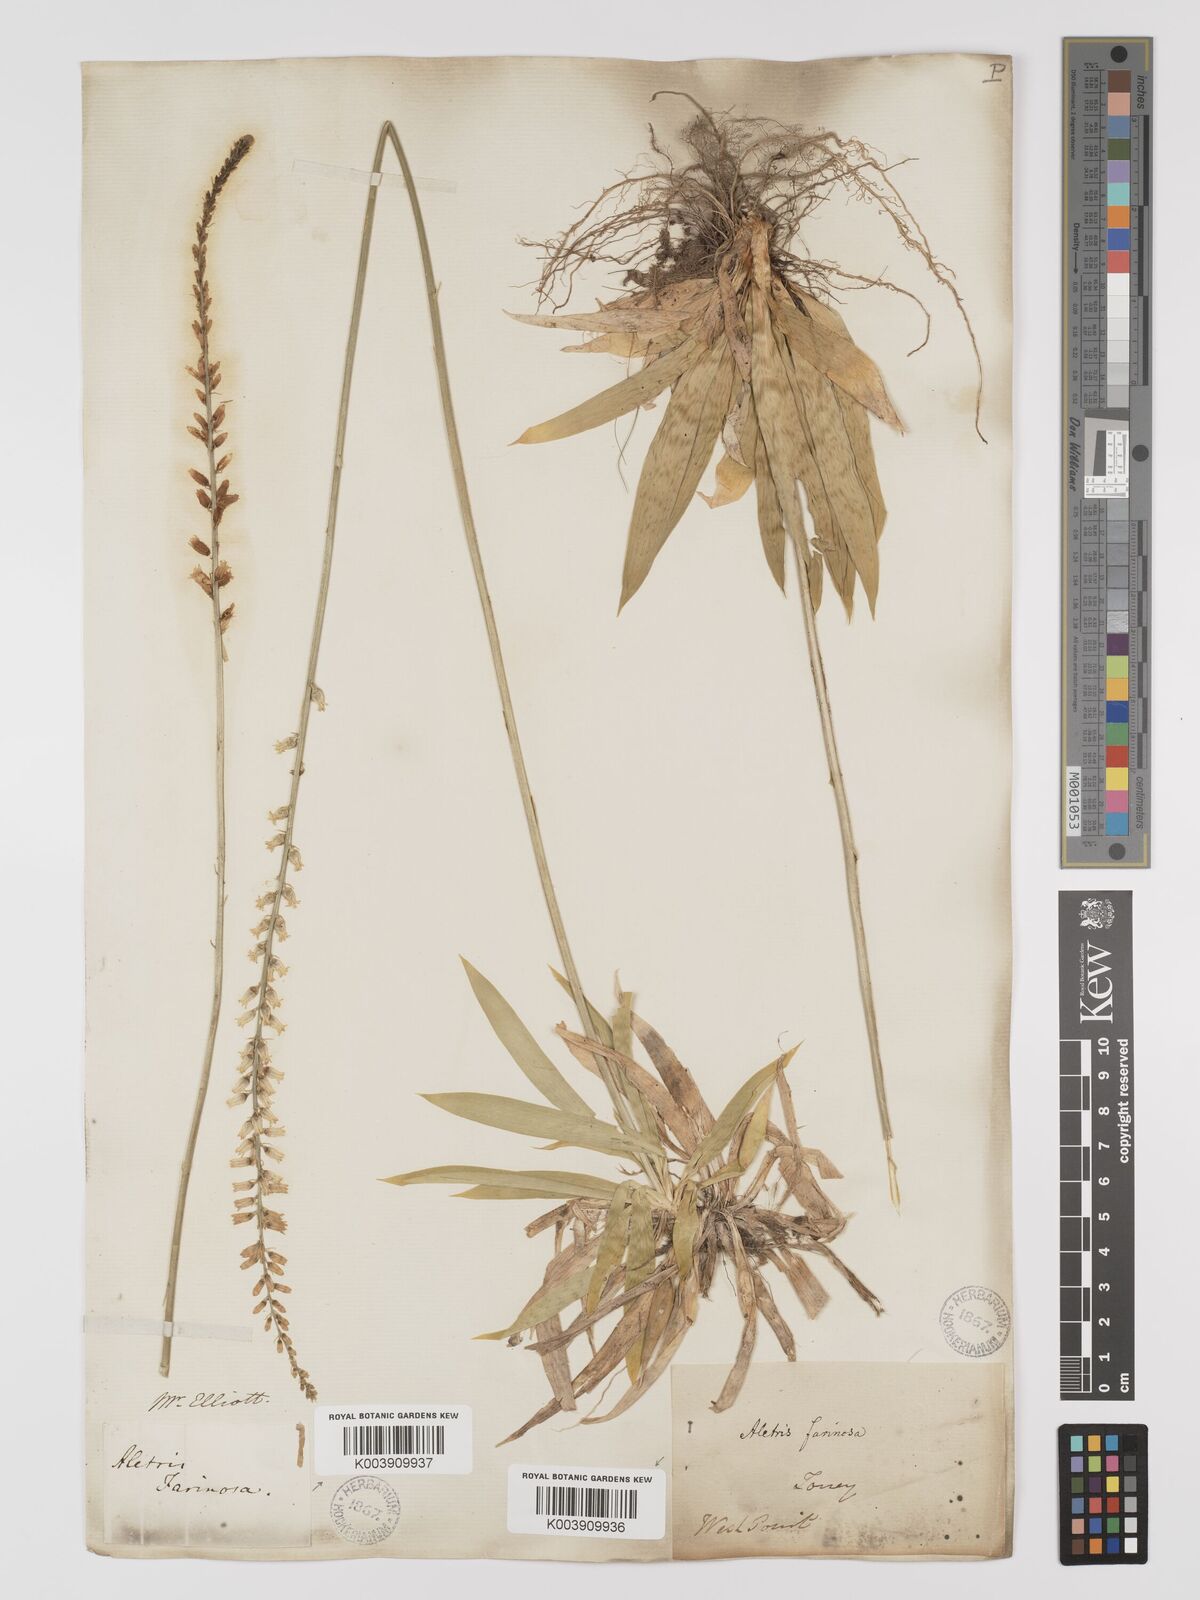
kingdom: Plantae
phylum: Tracheophyta
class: Liliopsida
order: Dioscoreales
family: Nartheciaceae
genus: Aletris
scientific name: Aletris farinosa
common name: Colicroot
